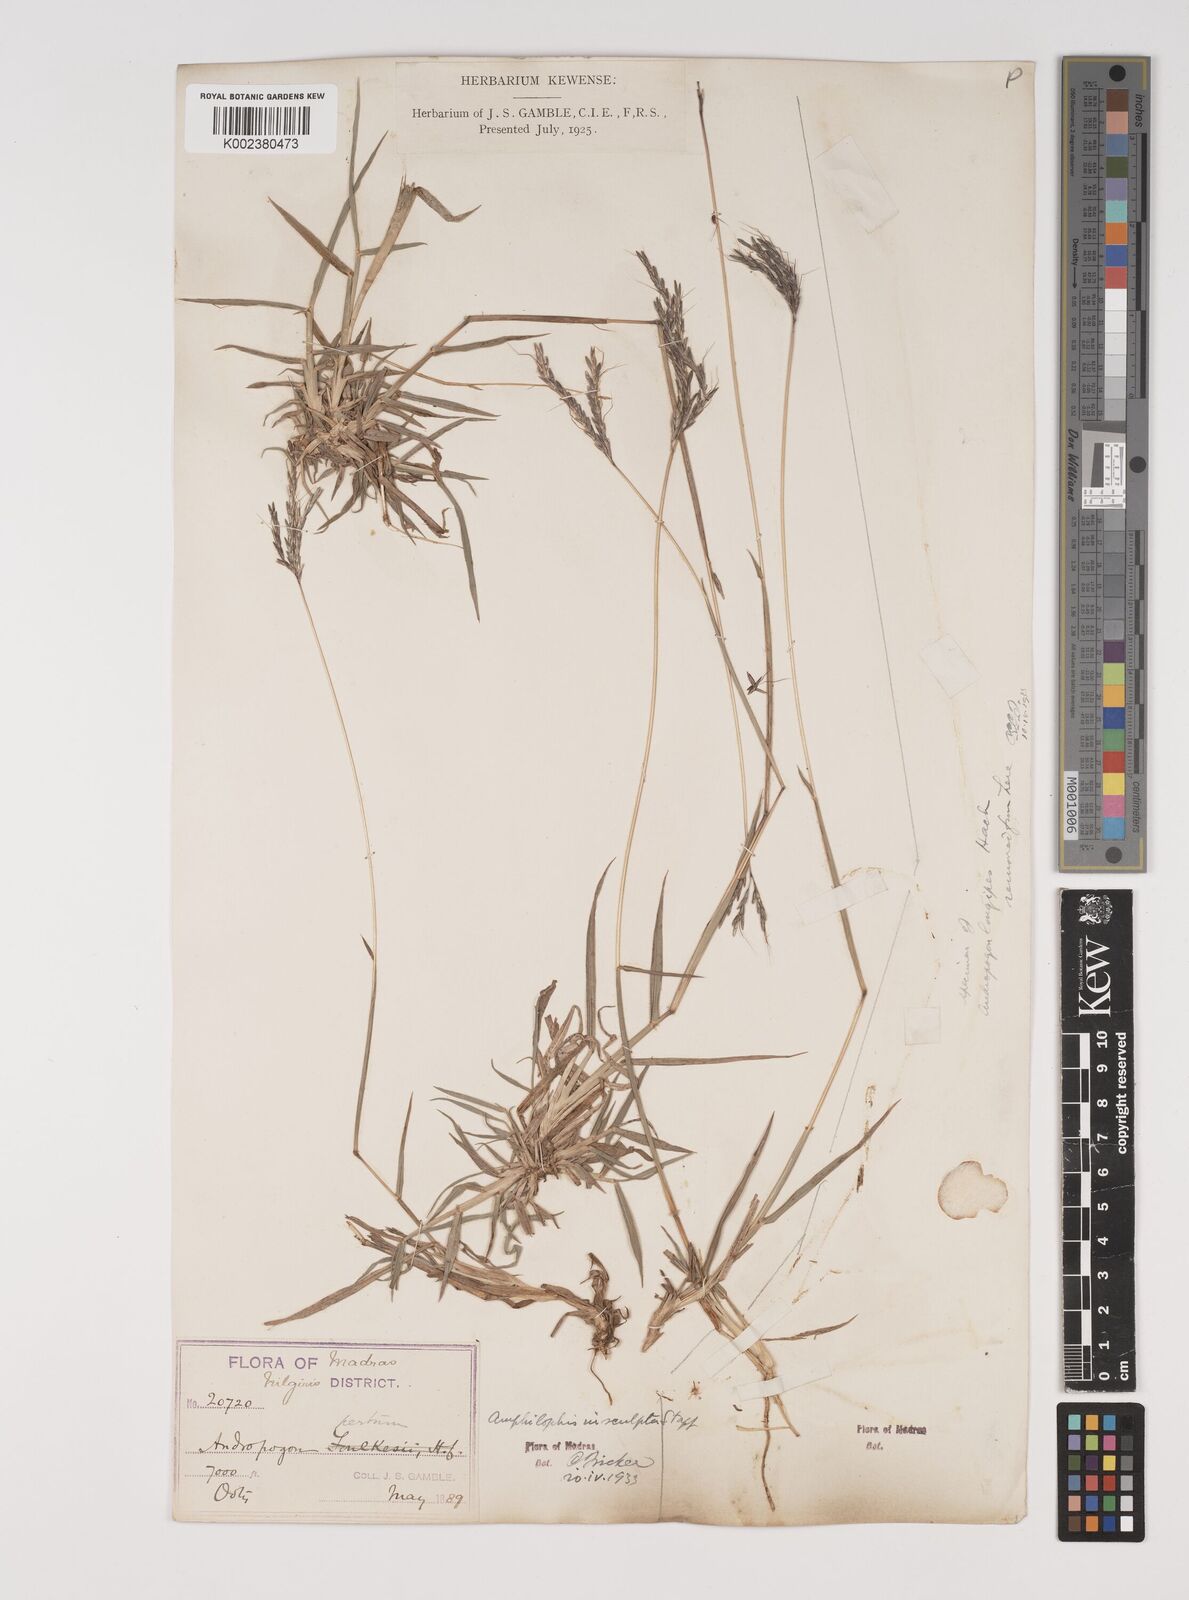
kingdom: Plantae
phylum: Tracheophyta
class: Liliopsida
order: Poales
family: Poaceae
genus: Bothriochloa
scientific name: Bothriochloa insculpta
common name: Creeping-bluegrass
